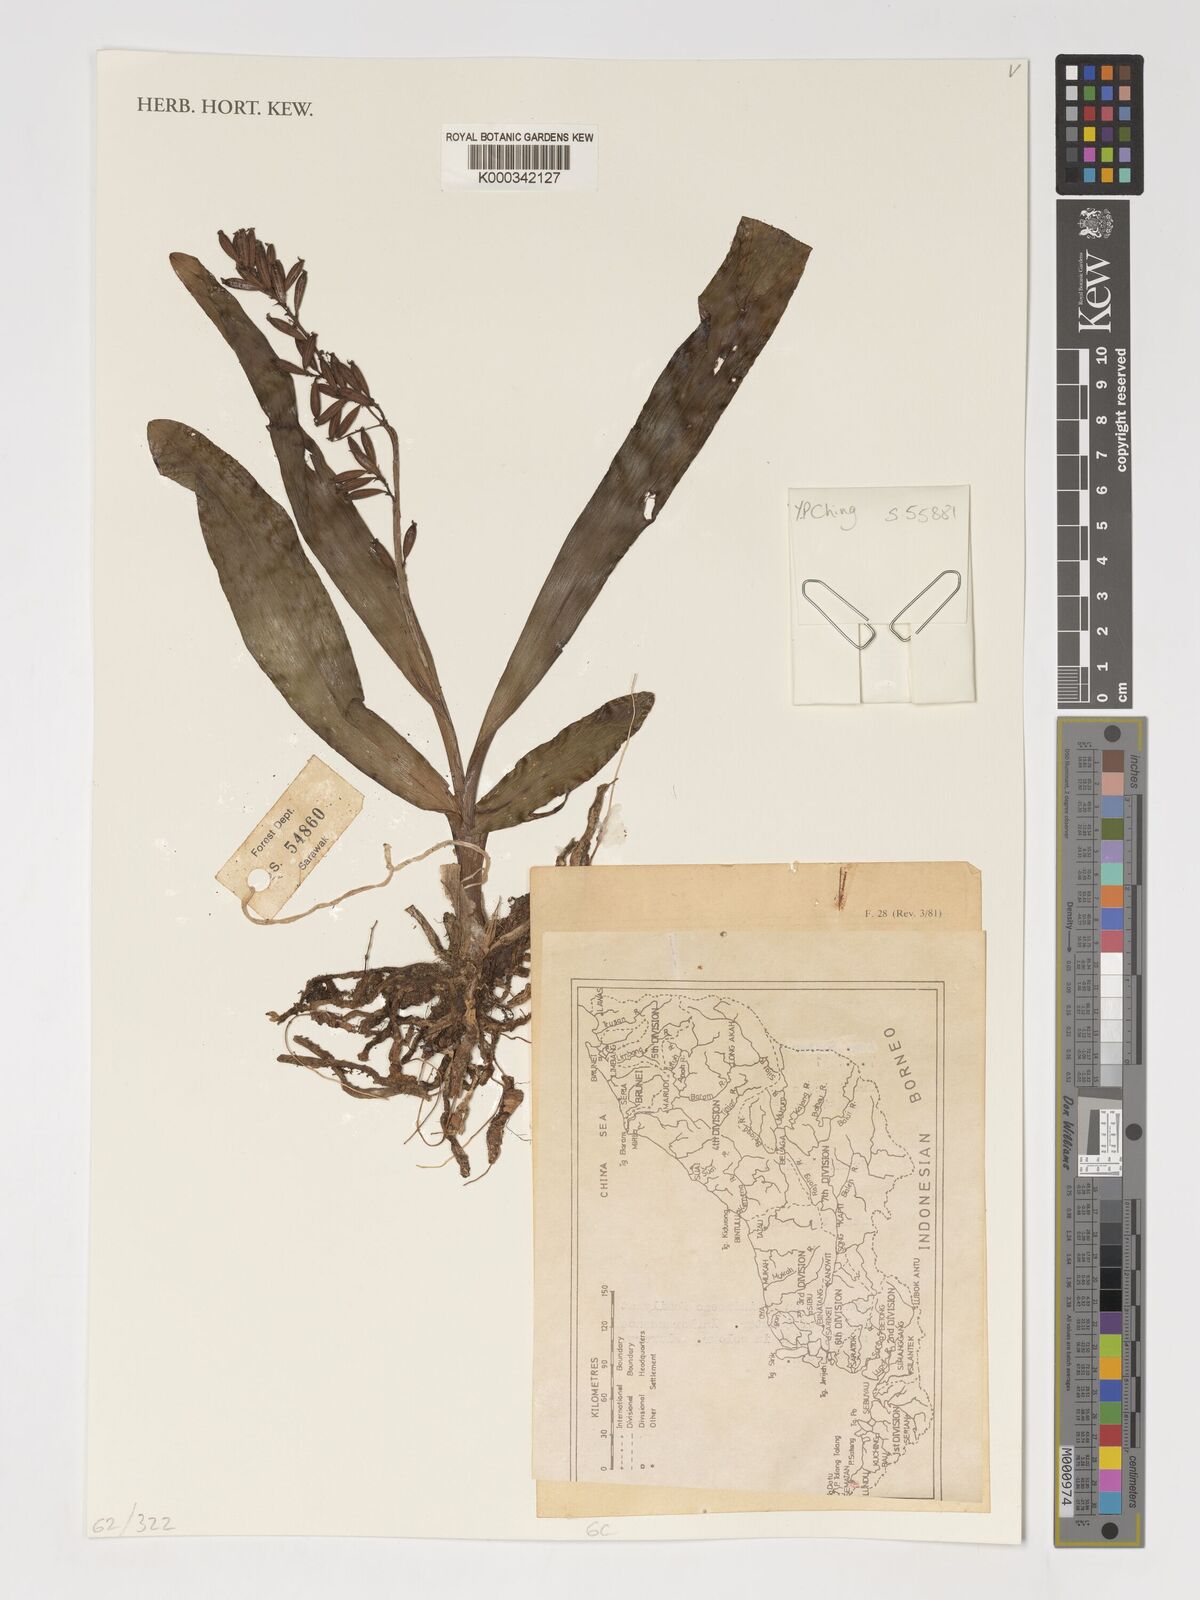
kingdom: Plantae
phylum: Tracheophyta
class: Liliopsida
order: Asparagales
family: Orchidaceae
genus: Polystachya
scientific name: Polystachya concreta
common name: Greater yellowspike orchid
